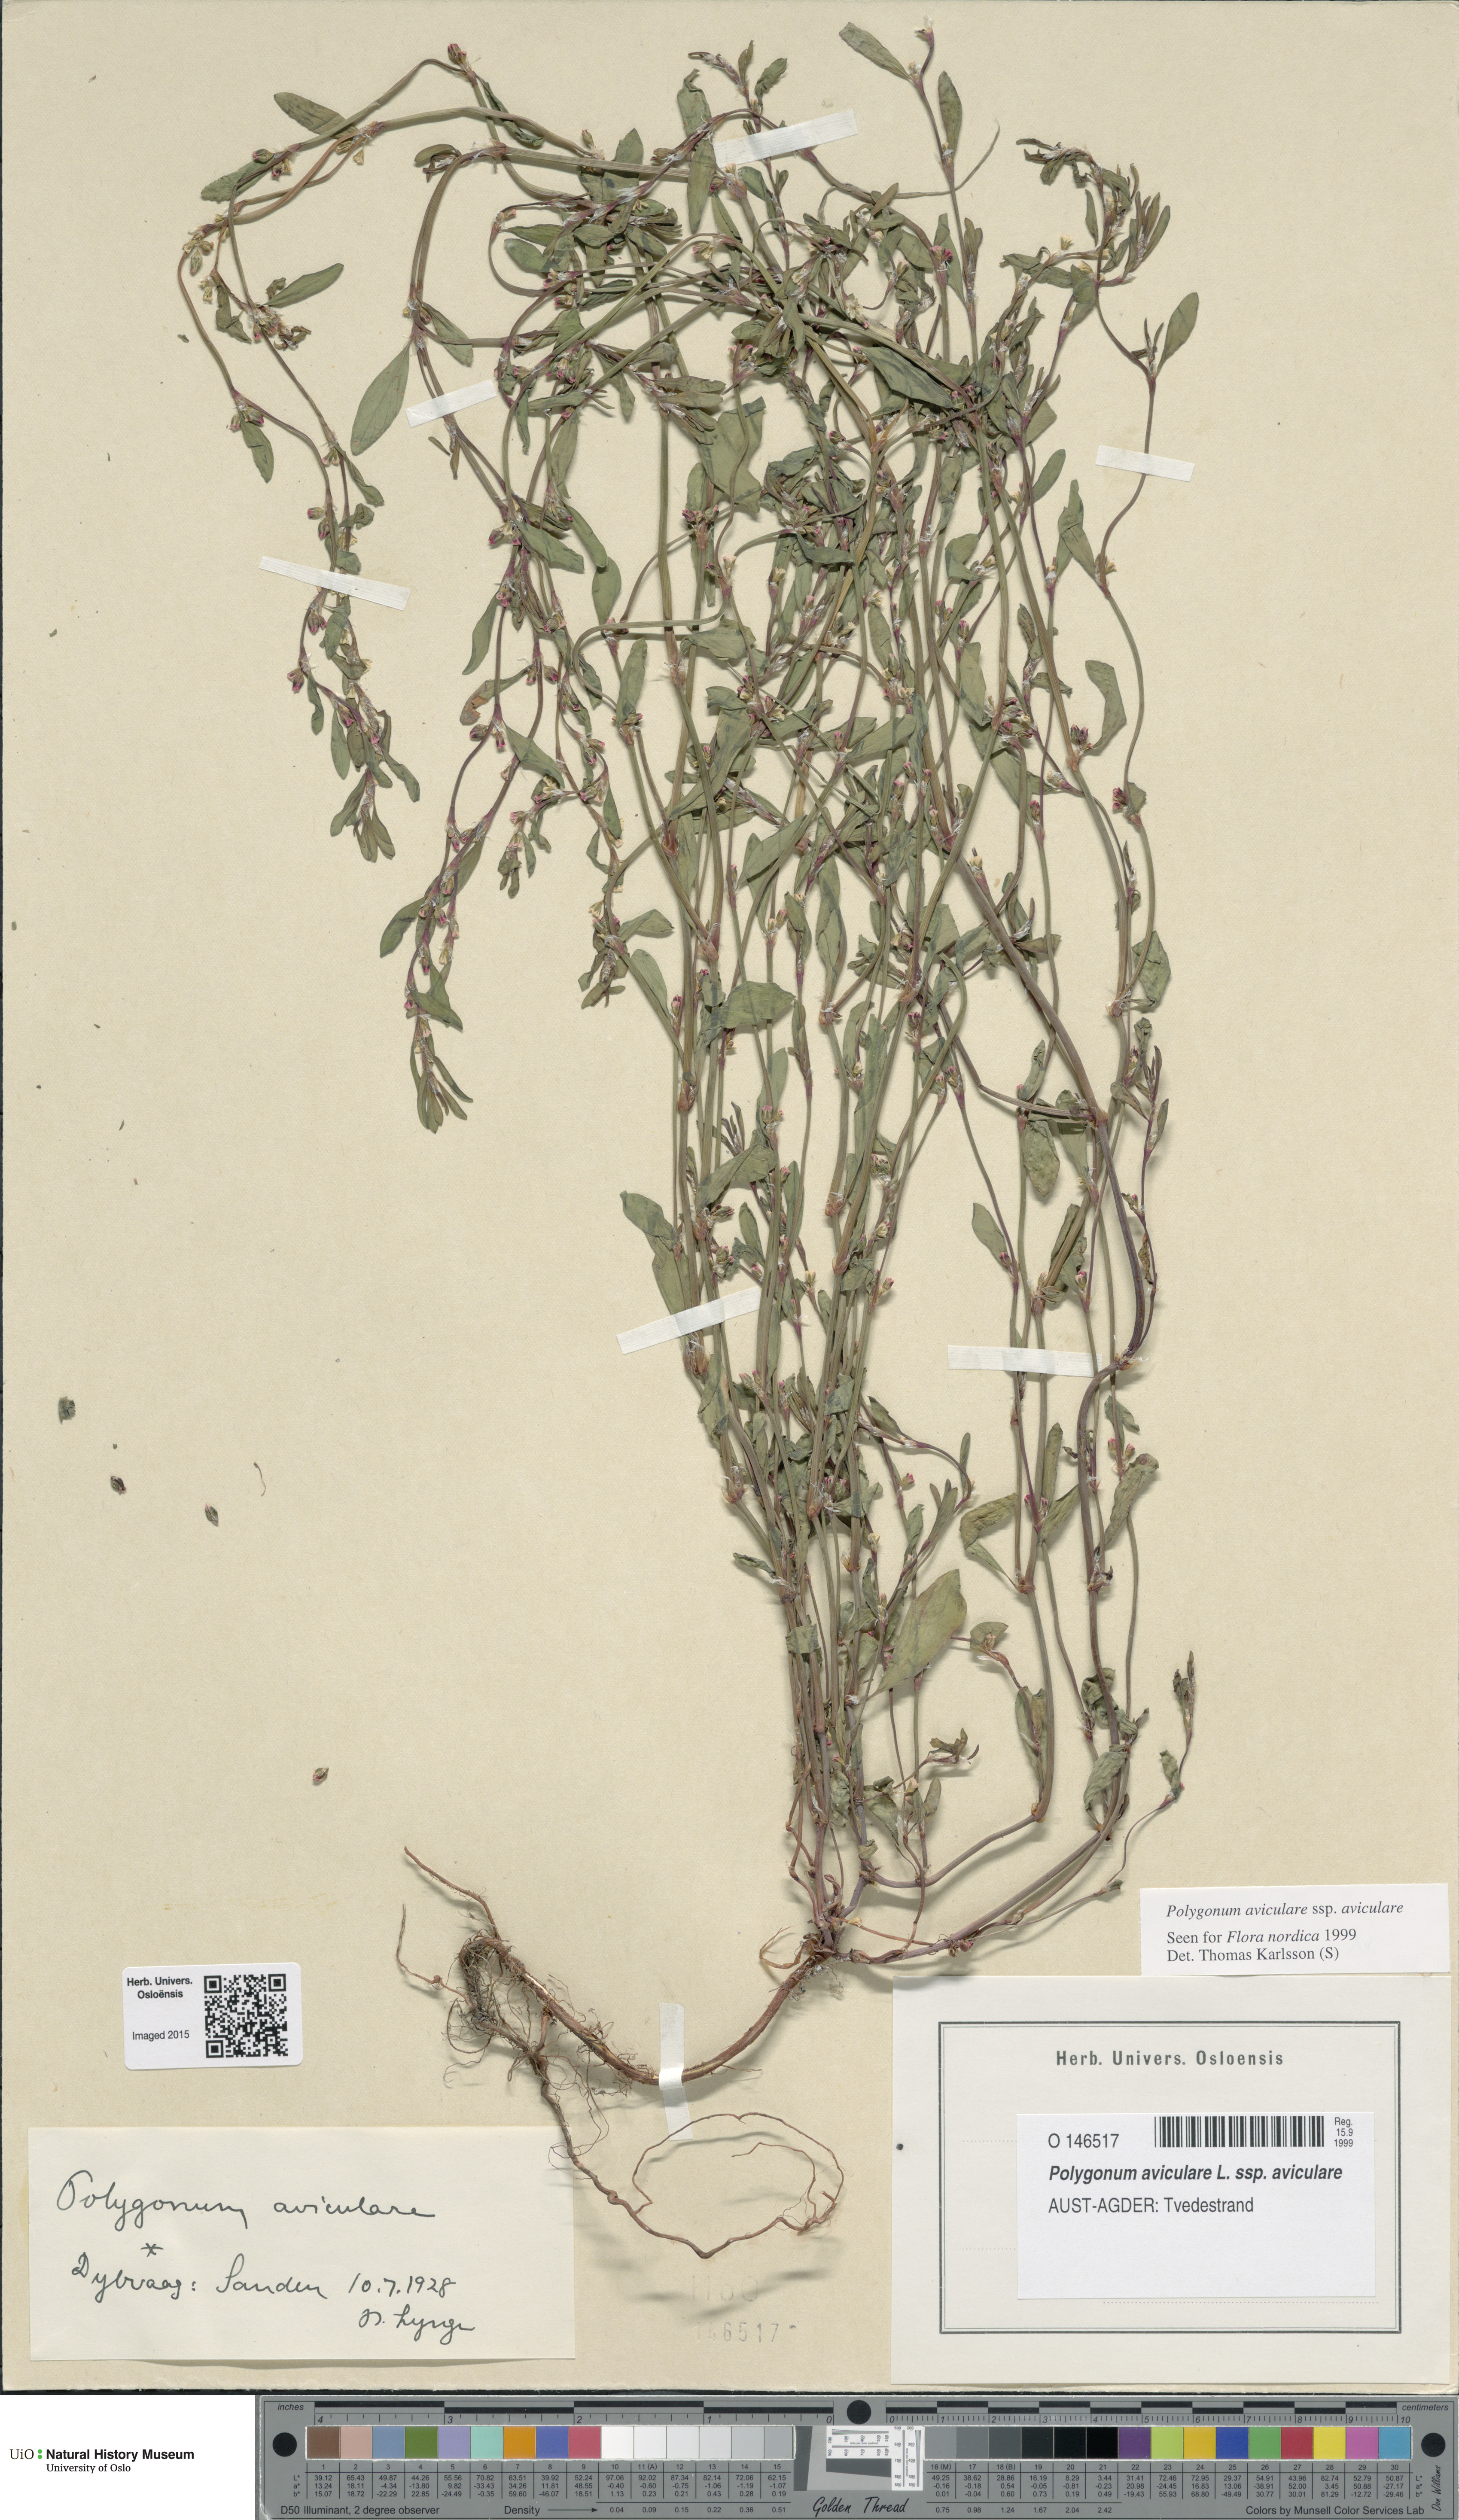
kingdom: Plantae
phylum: Tracheophyta
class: Magnoliopsida
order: Caryophyllales
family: Polygonaceae
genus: Polygonum
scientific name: Polygonum aviculare
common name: Prostrate knotweed
